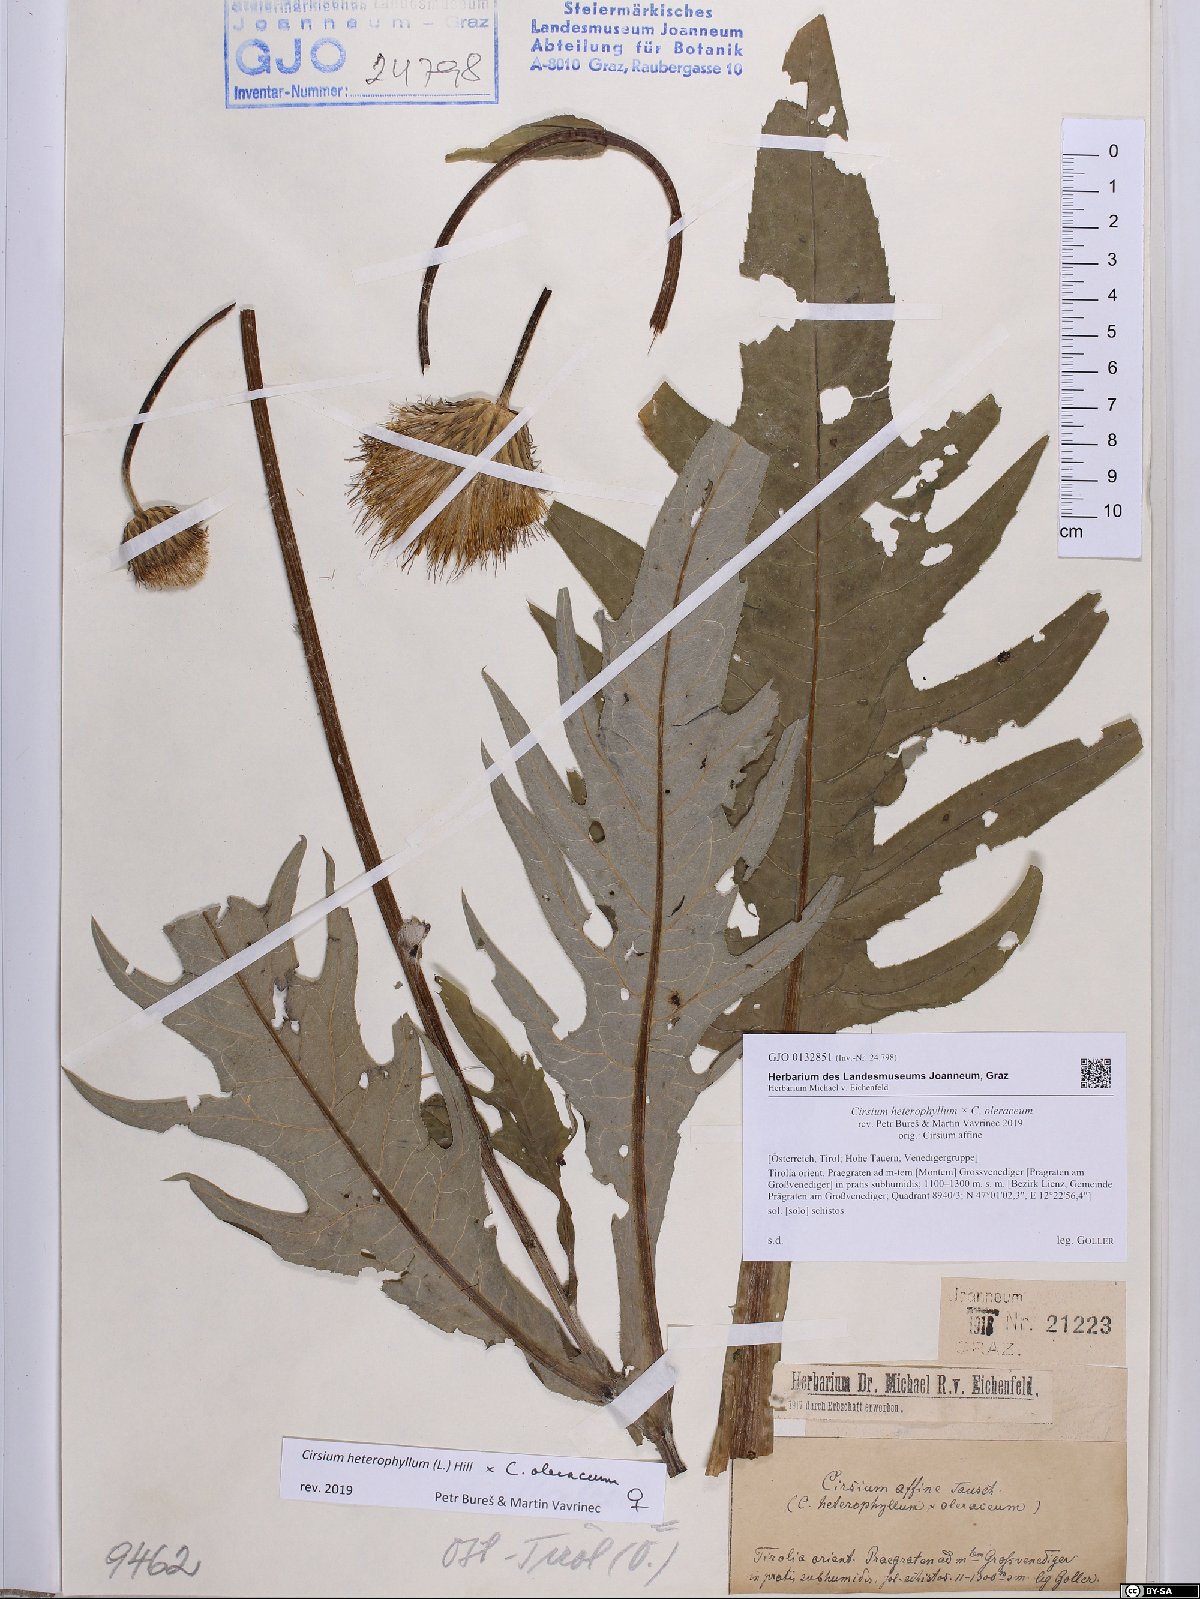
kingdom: Plantae
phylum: Tracheophyta
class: Magnoliopsida
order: Asterales
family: Asteraceae
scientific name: Asteraceae
